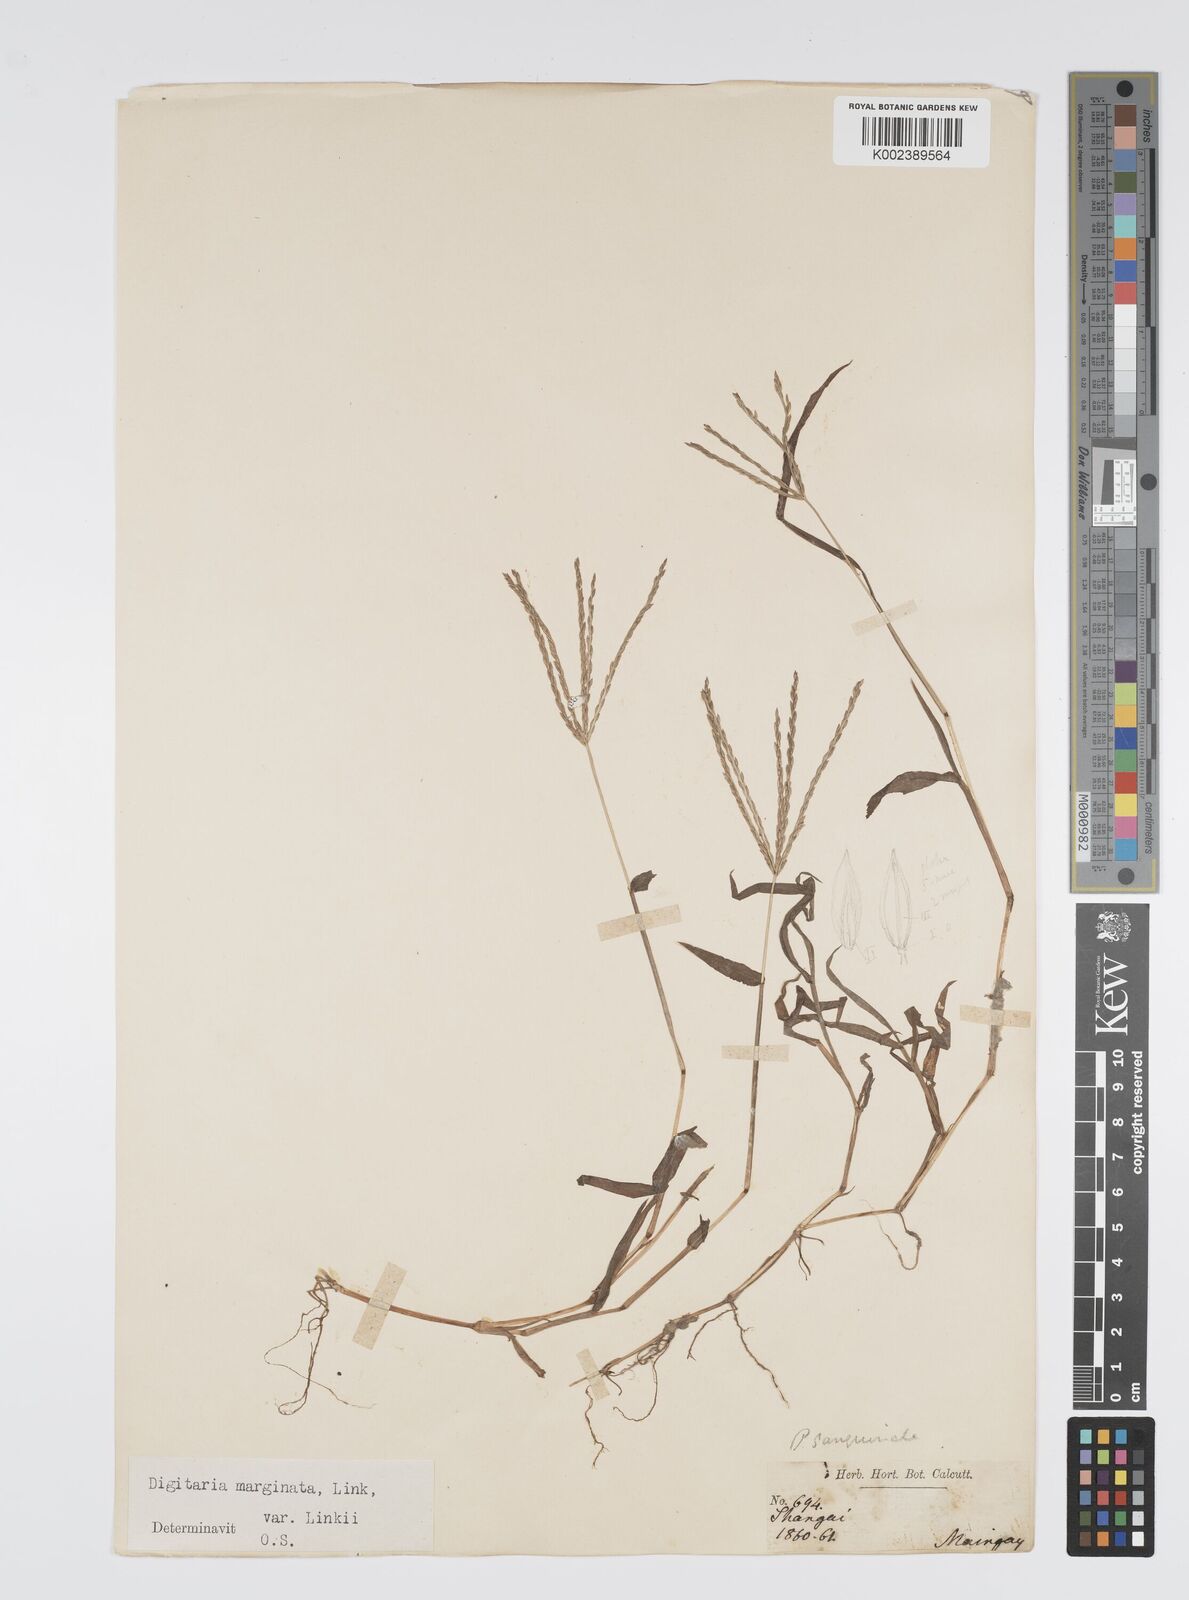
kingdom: Plantae
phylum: Tracheophyta
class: Liliopsida
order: Poales
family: Poaceae
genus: Digitaria
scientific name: Digitaria ciliaris
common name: Tropical finger-grass
